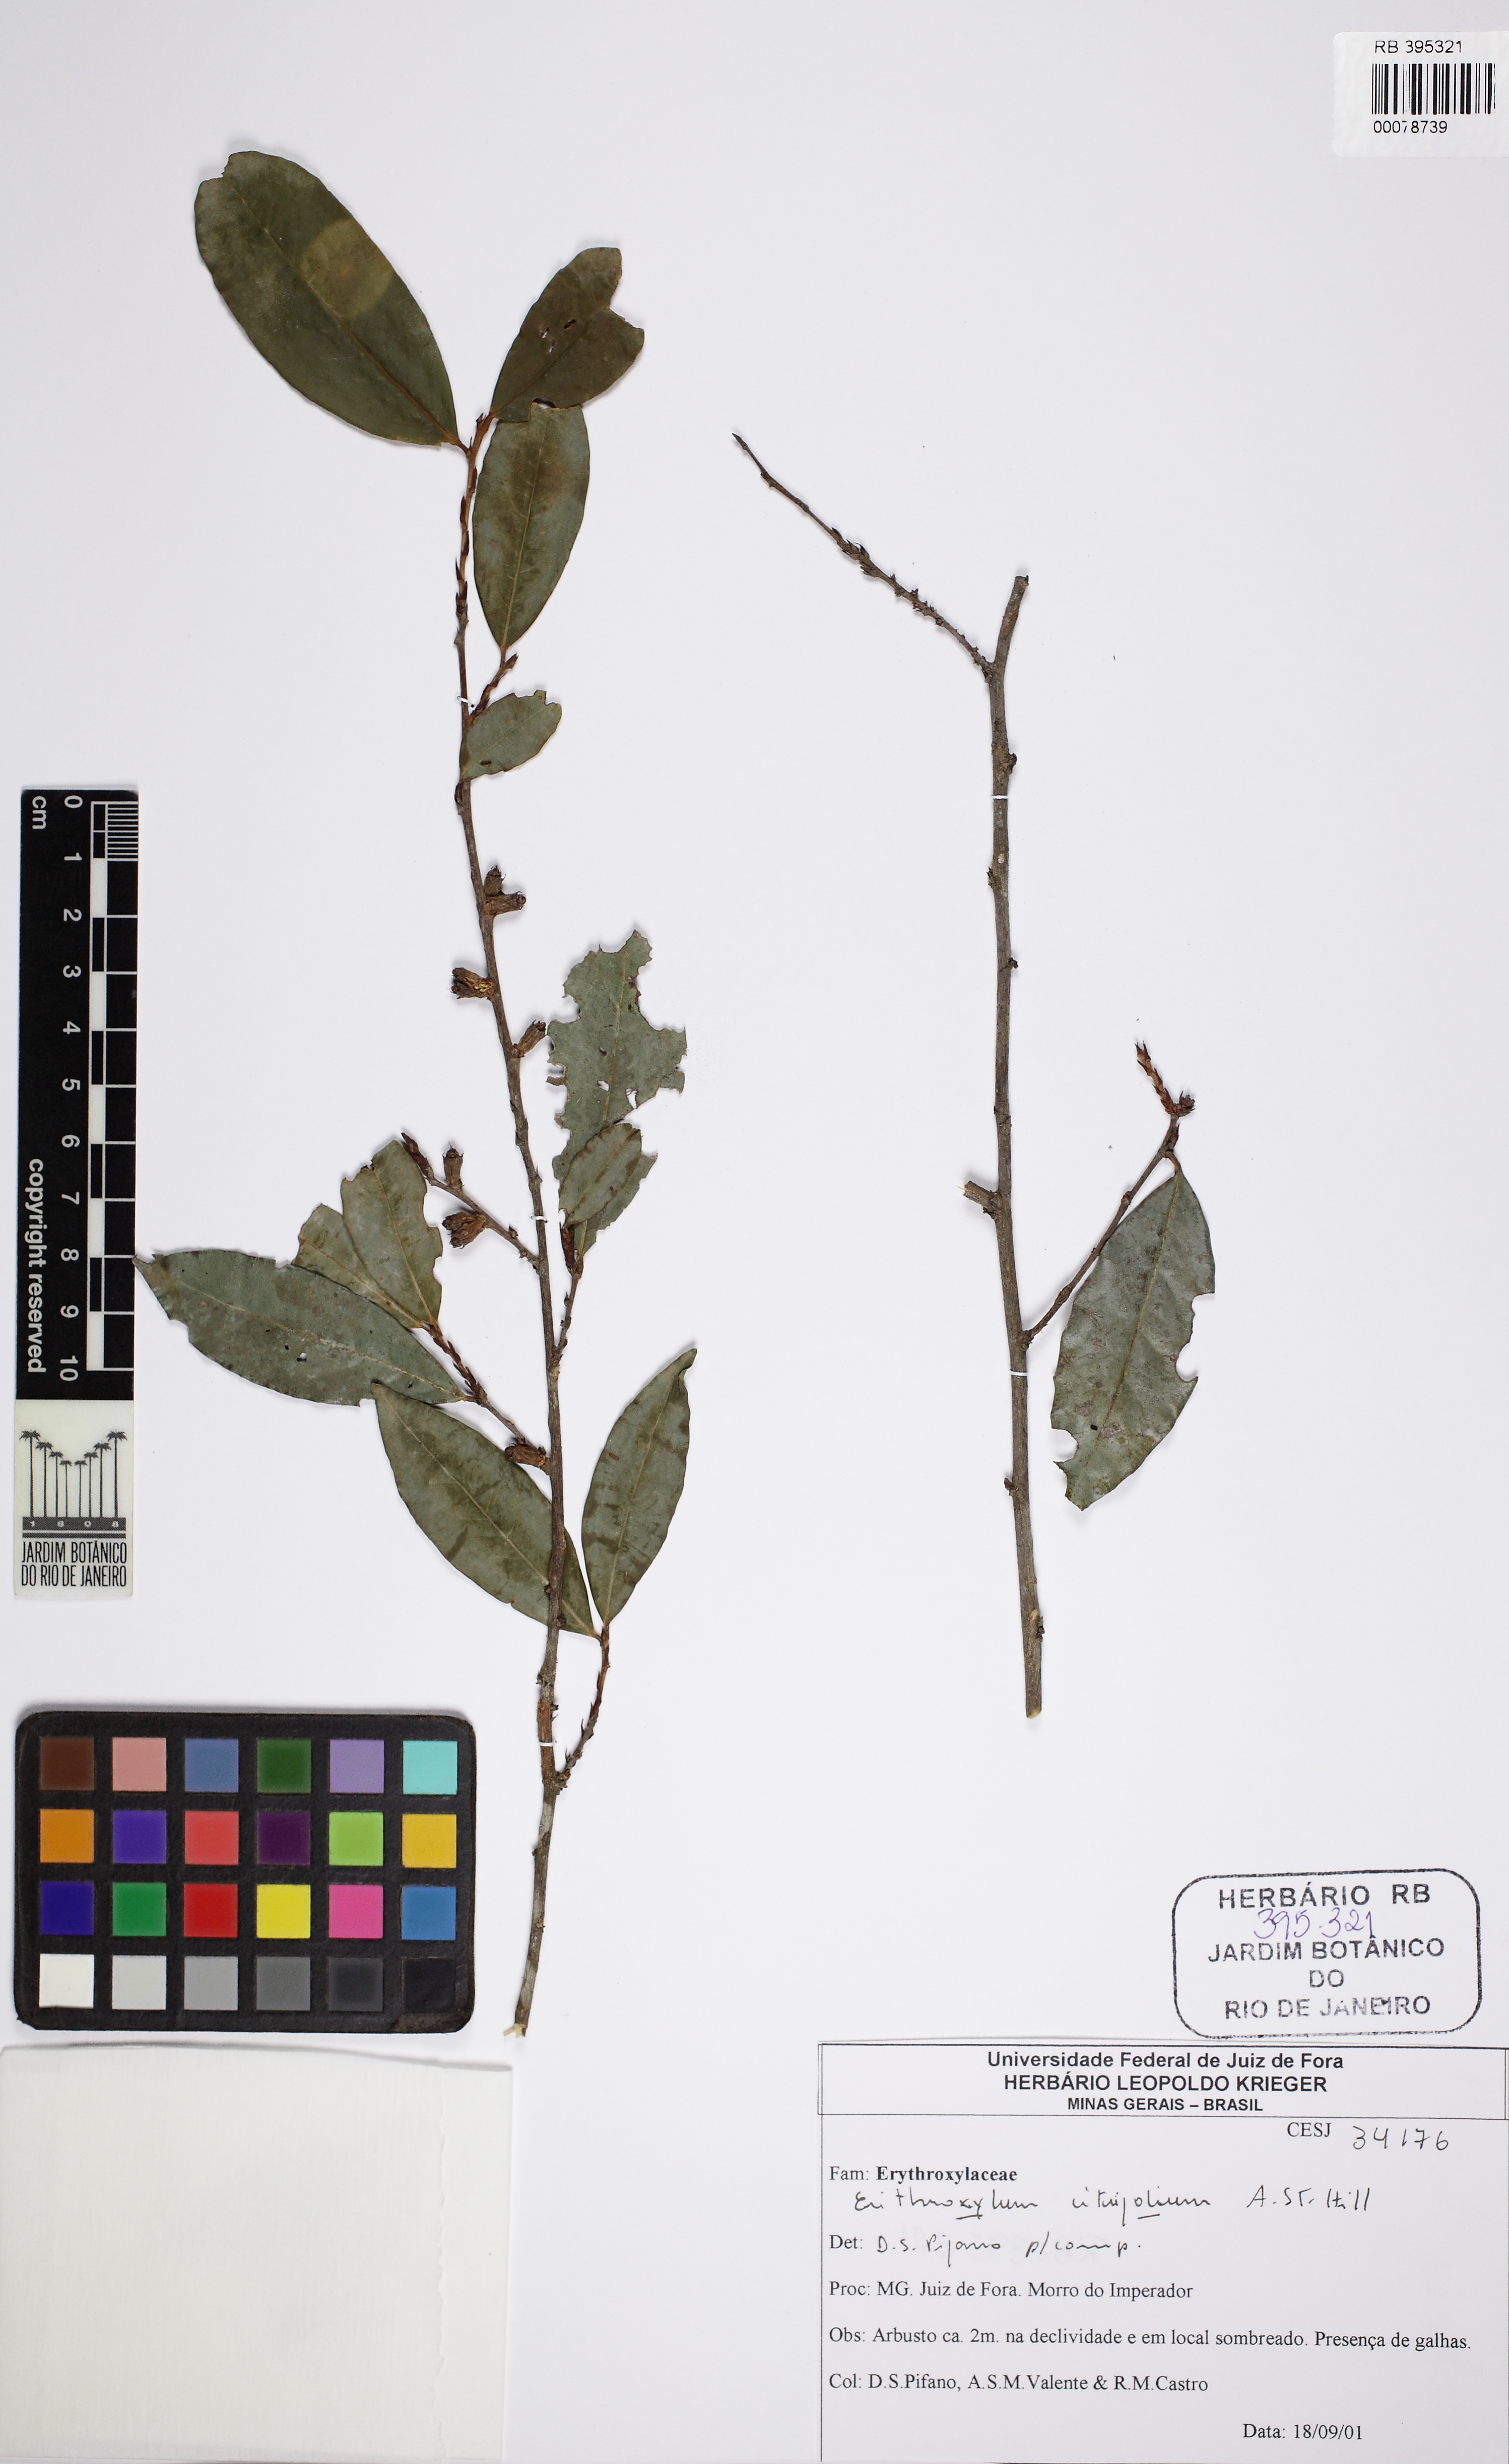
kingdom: Plantae
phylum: Tracheophyta
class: Magnoliopsida
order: Malpighiales
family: Erythroxylaceae
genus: Erythroxylum
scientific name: Erythroxylum citrifolium
